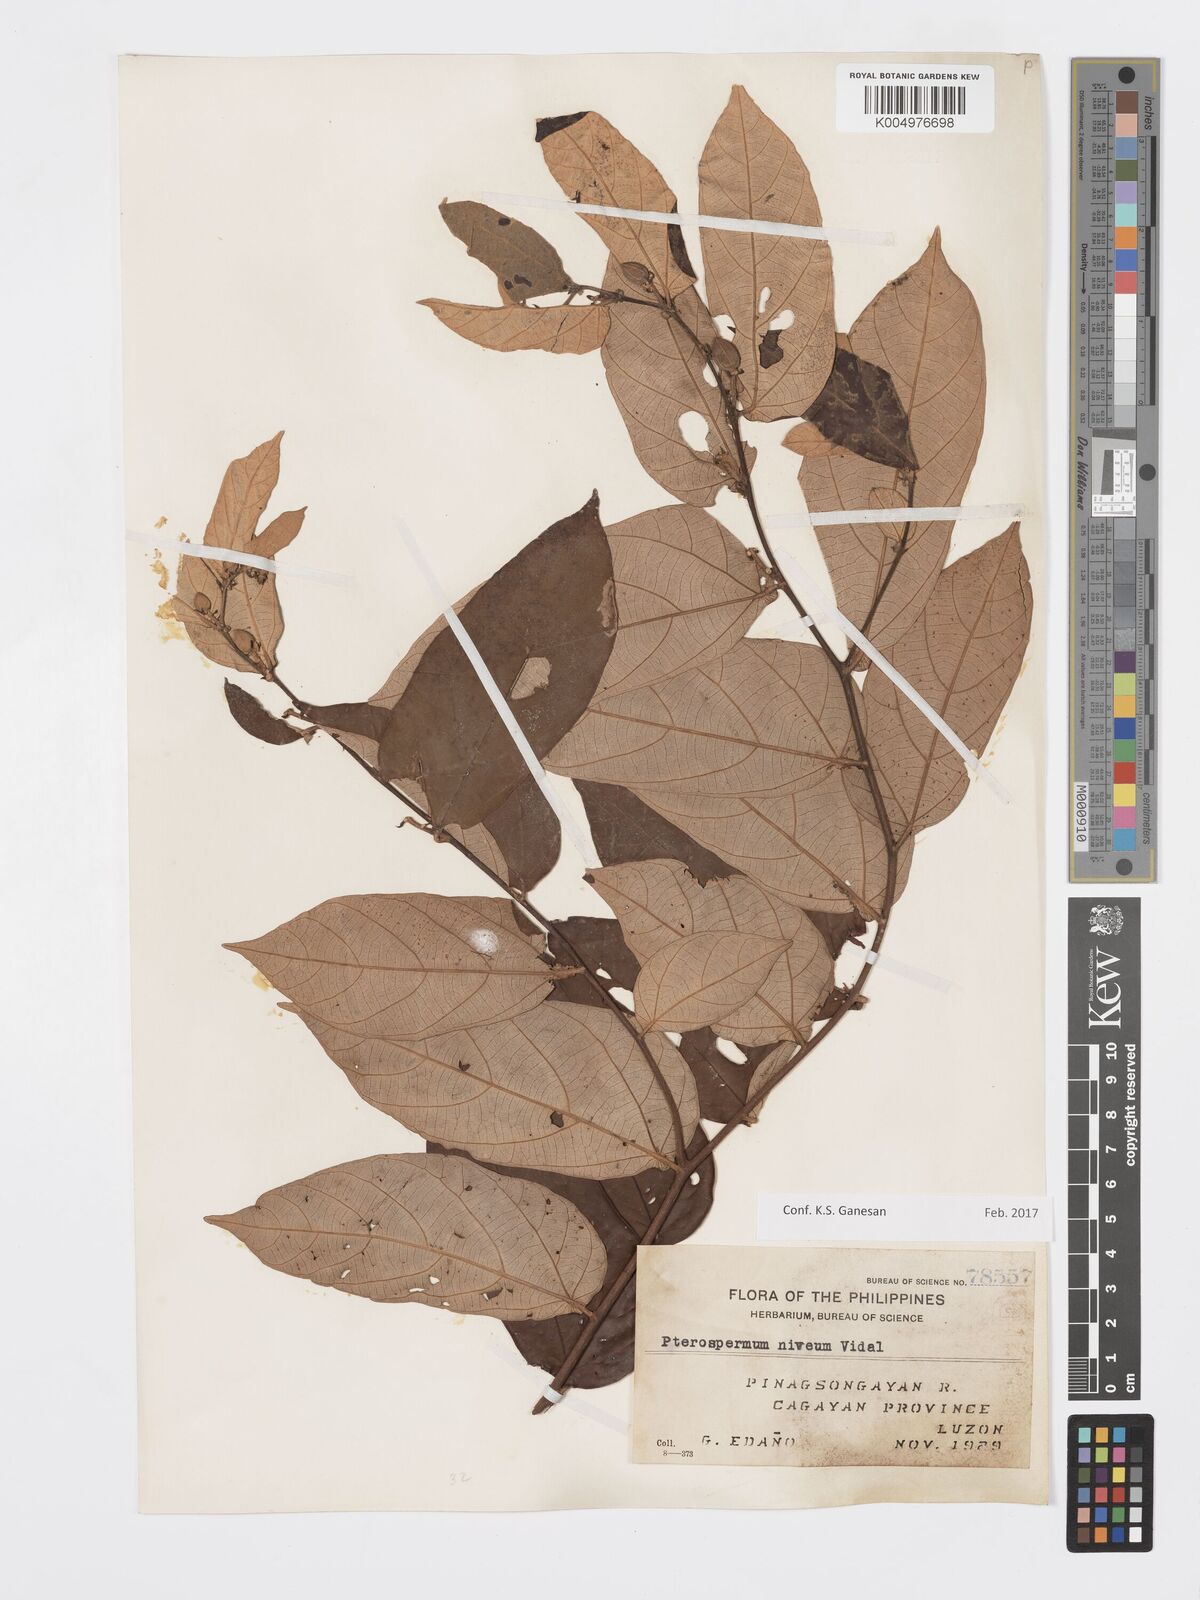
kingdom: Plantae
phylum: Tracheophyta
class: Magnoliopsida
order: Malvales
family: Malvaceae
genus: Pterospermum
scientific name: Pterospermum niveum
